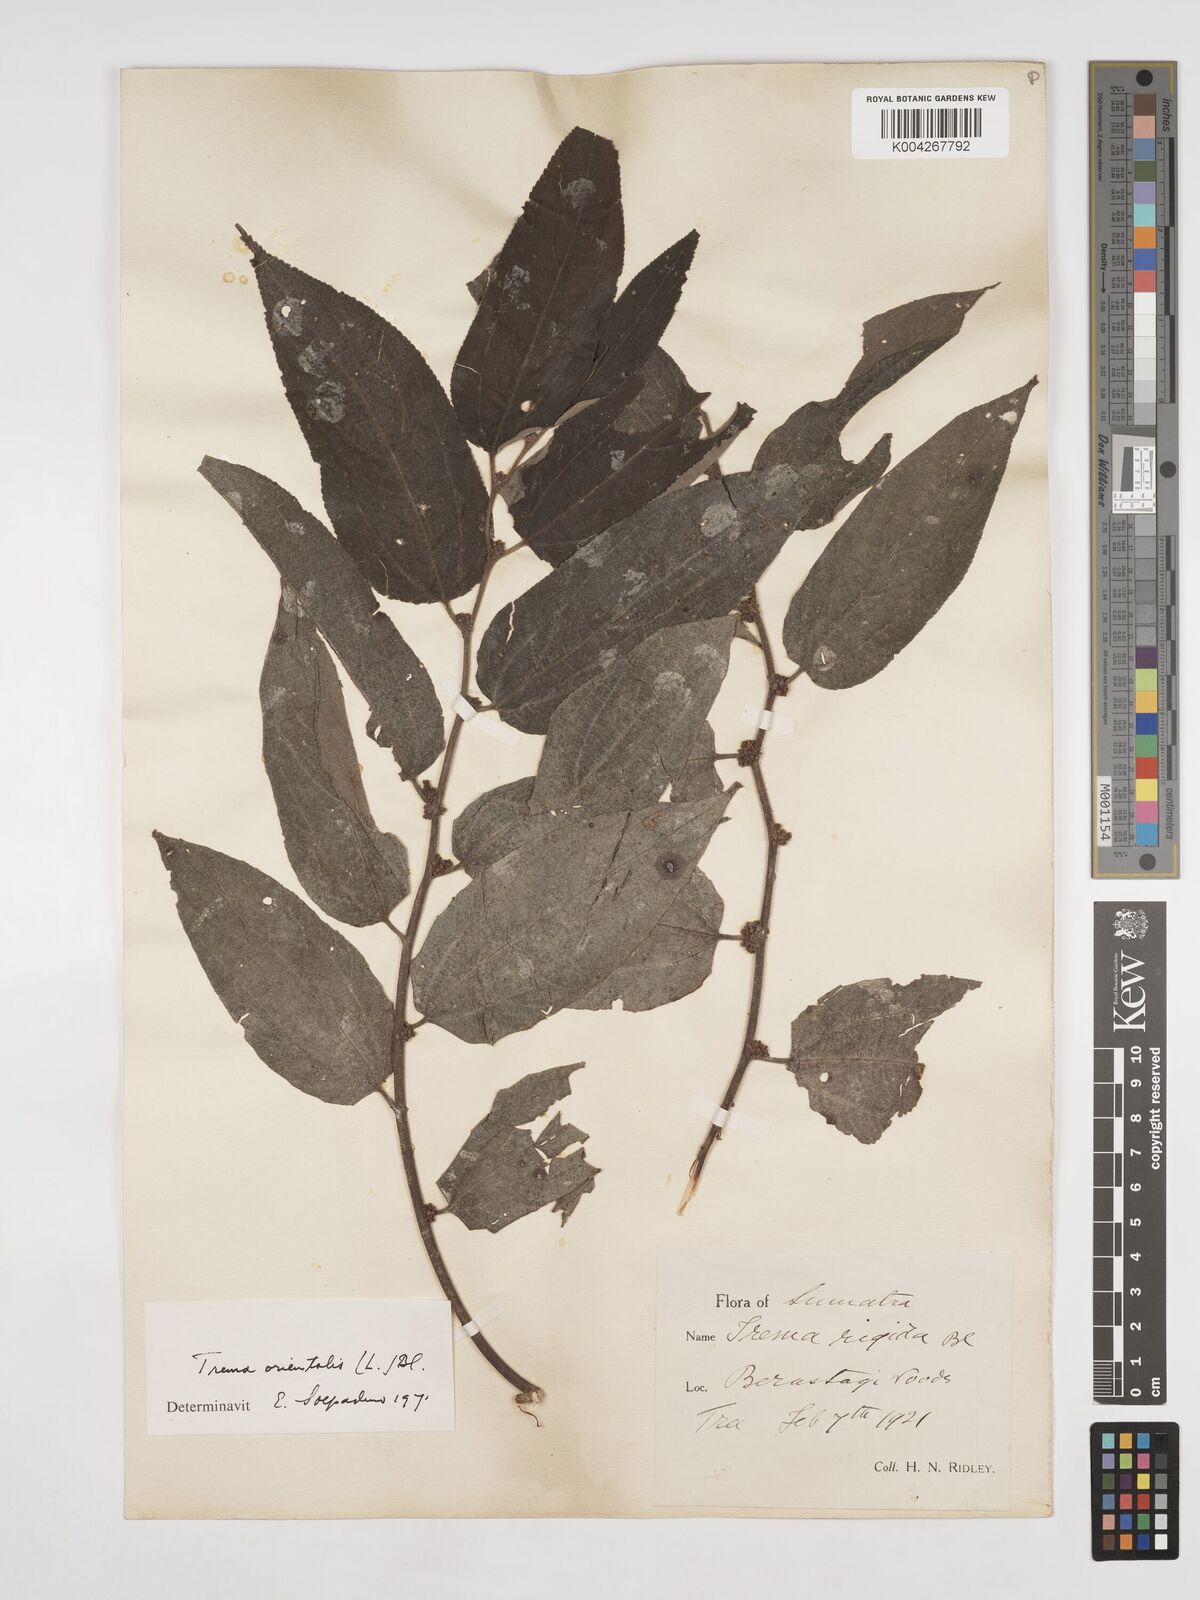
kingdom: Plantae
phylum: Tracheophyta
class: Magnoliopsida
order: Rosales
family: Cannabaceae
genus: Trema
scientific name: Trema orientale
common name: Indian charcoal tree
